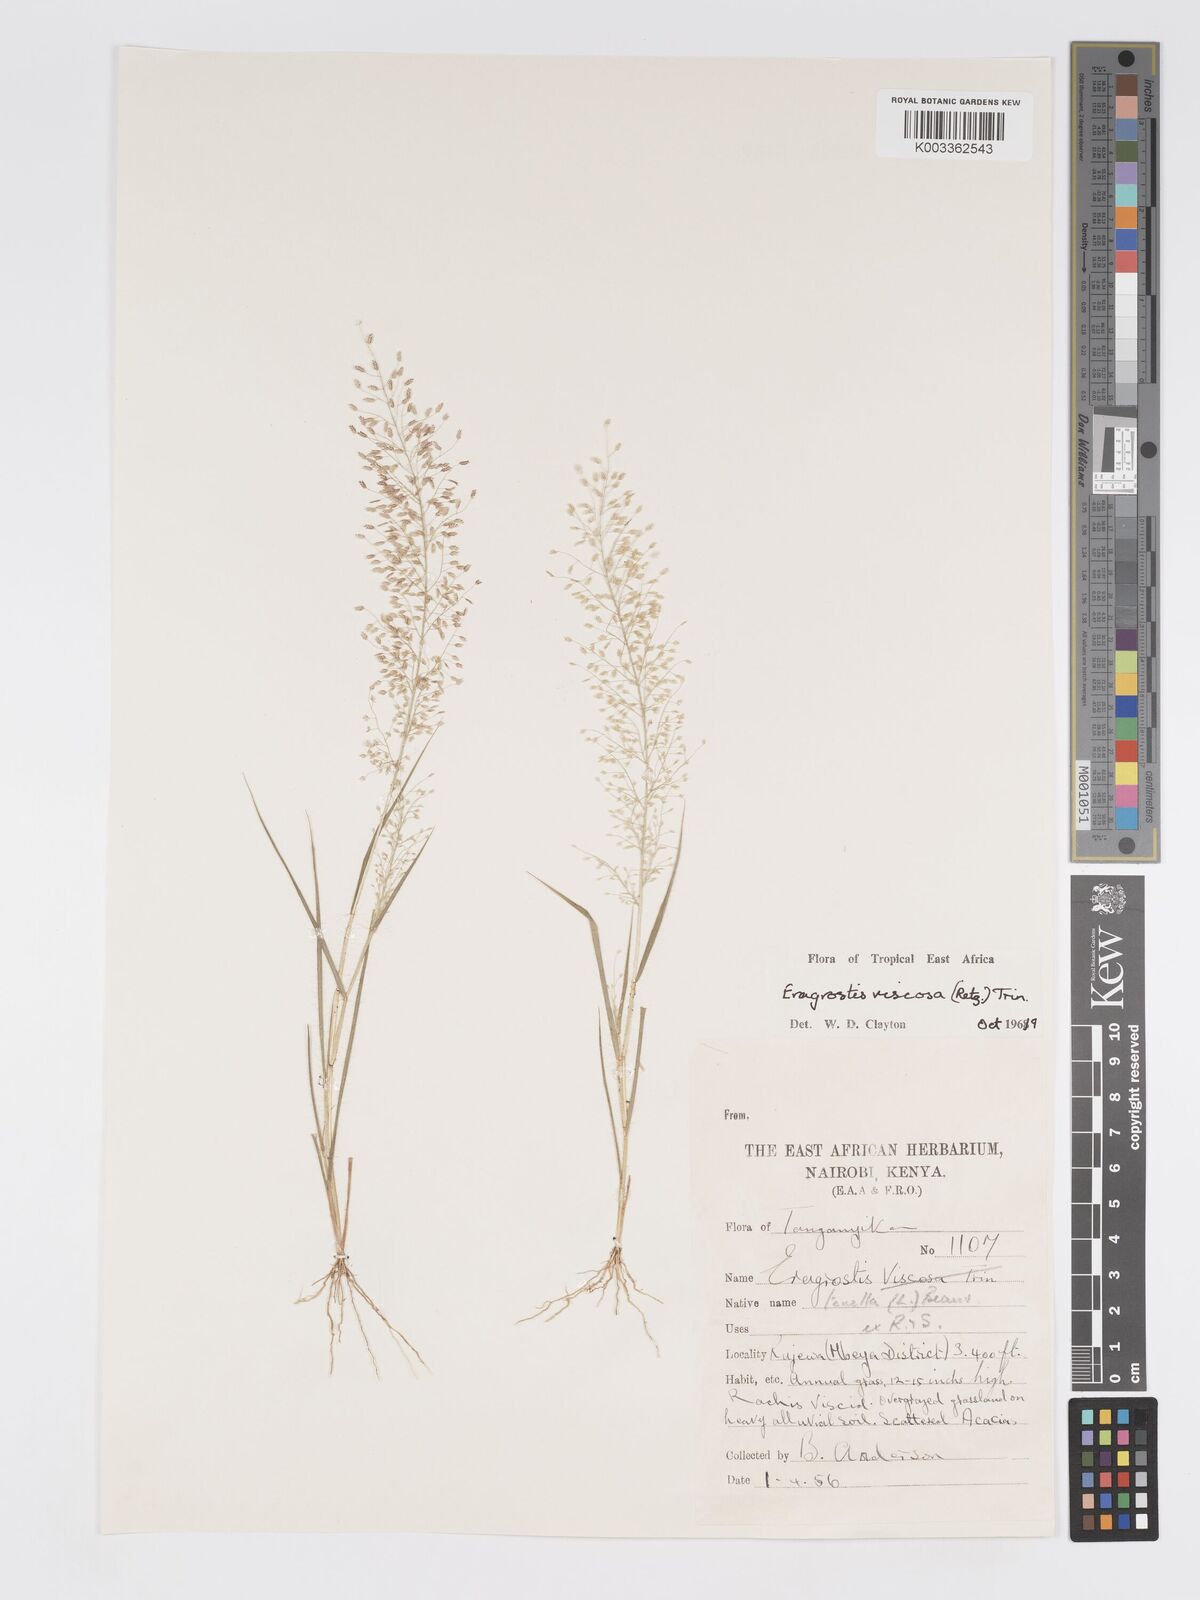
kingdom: Plantae
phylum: Tracheophyta
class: Liliopsida
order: Poales
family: Poaceae
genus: Eragrostis
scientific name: Eragrostis viscosa
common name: Sticky love grass
